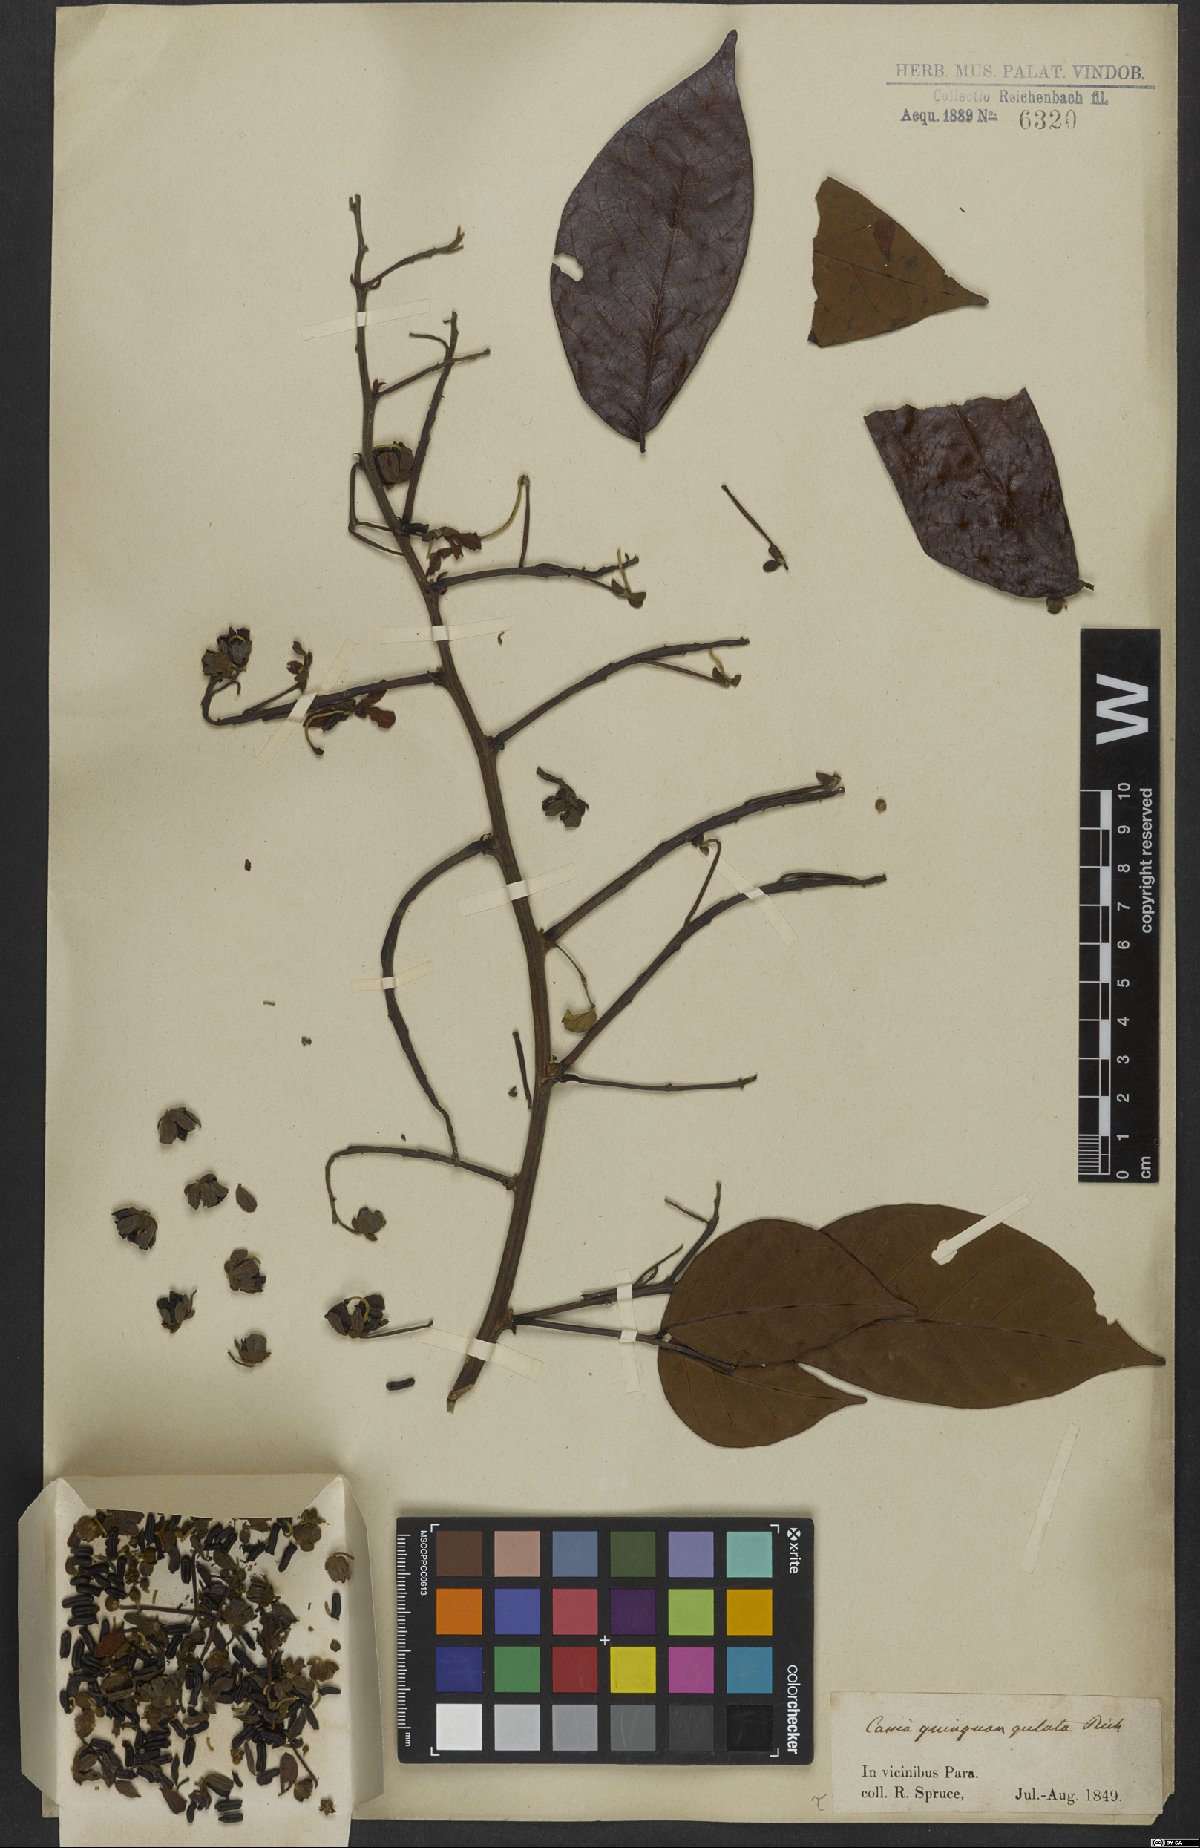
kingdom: Plantae
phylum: Tracheophyta
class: Magnoliopsida
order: Fabales
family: Fabaceae
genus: Senna
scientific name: Senna quinquangulata
